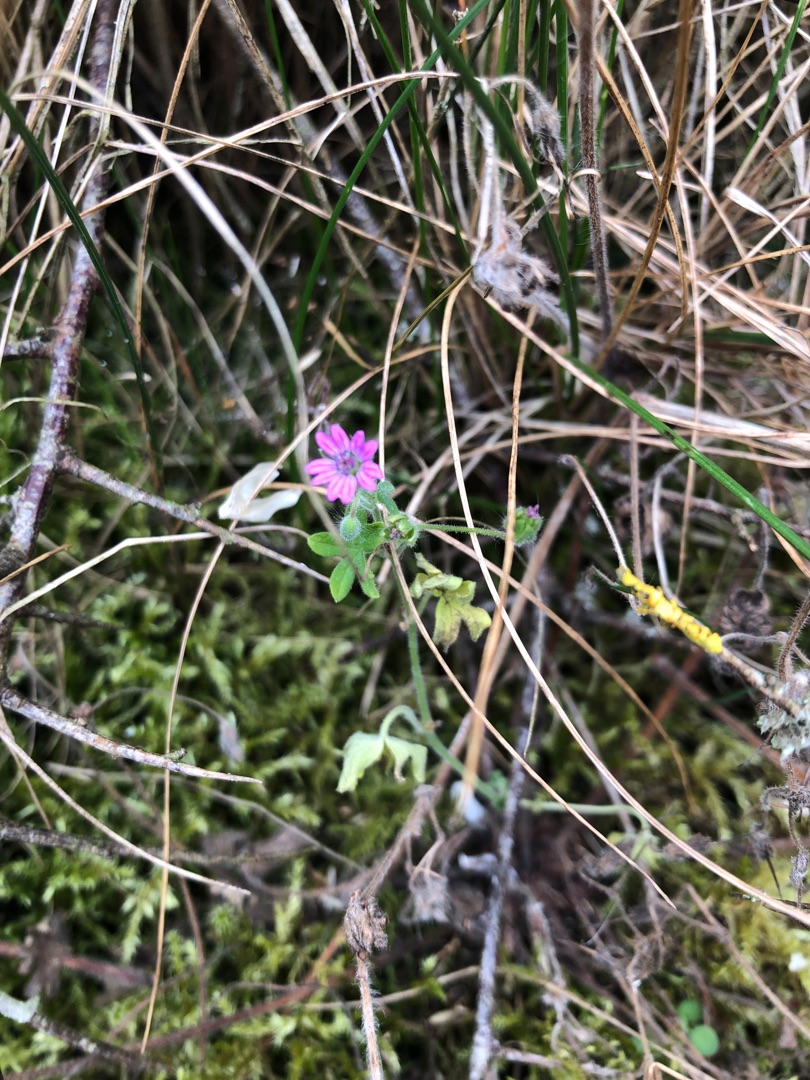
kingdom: Plantae
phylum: Tracheophyta
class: Magnoliopsida
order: Geraniales
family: Geraniaceae
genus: Geranium
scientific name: Geranium molle
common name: Blød storkenæb
